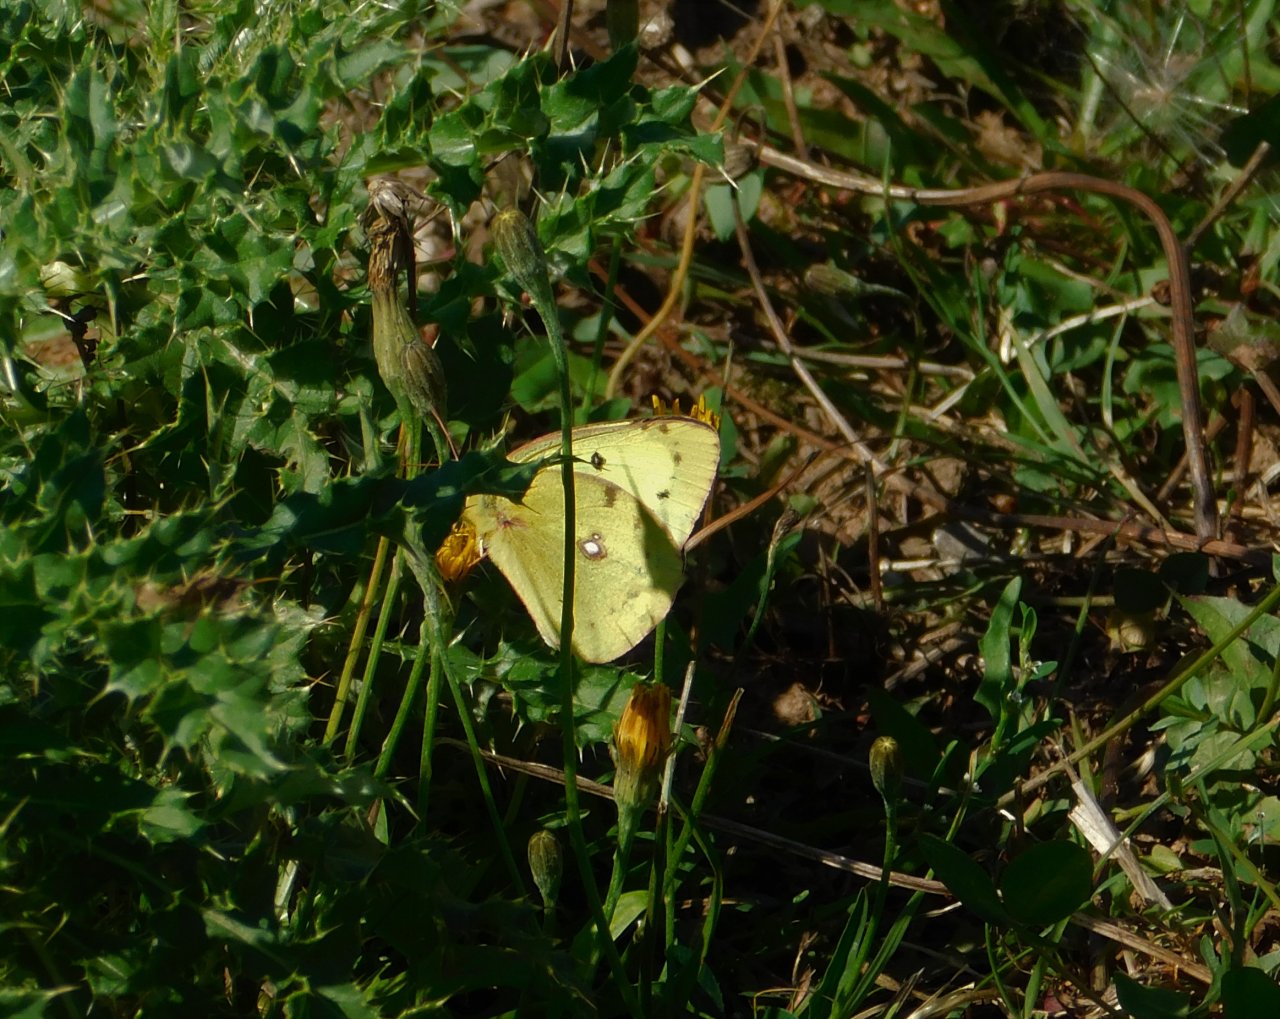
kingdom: Animalia
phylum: Arthropoda
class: Insecta
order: Lepidoptera
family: Pieridae
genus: Colias
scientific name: Colias philodice
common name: Clouded Sulphur
